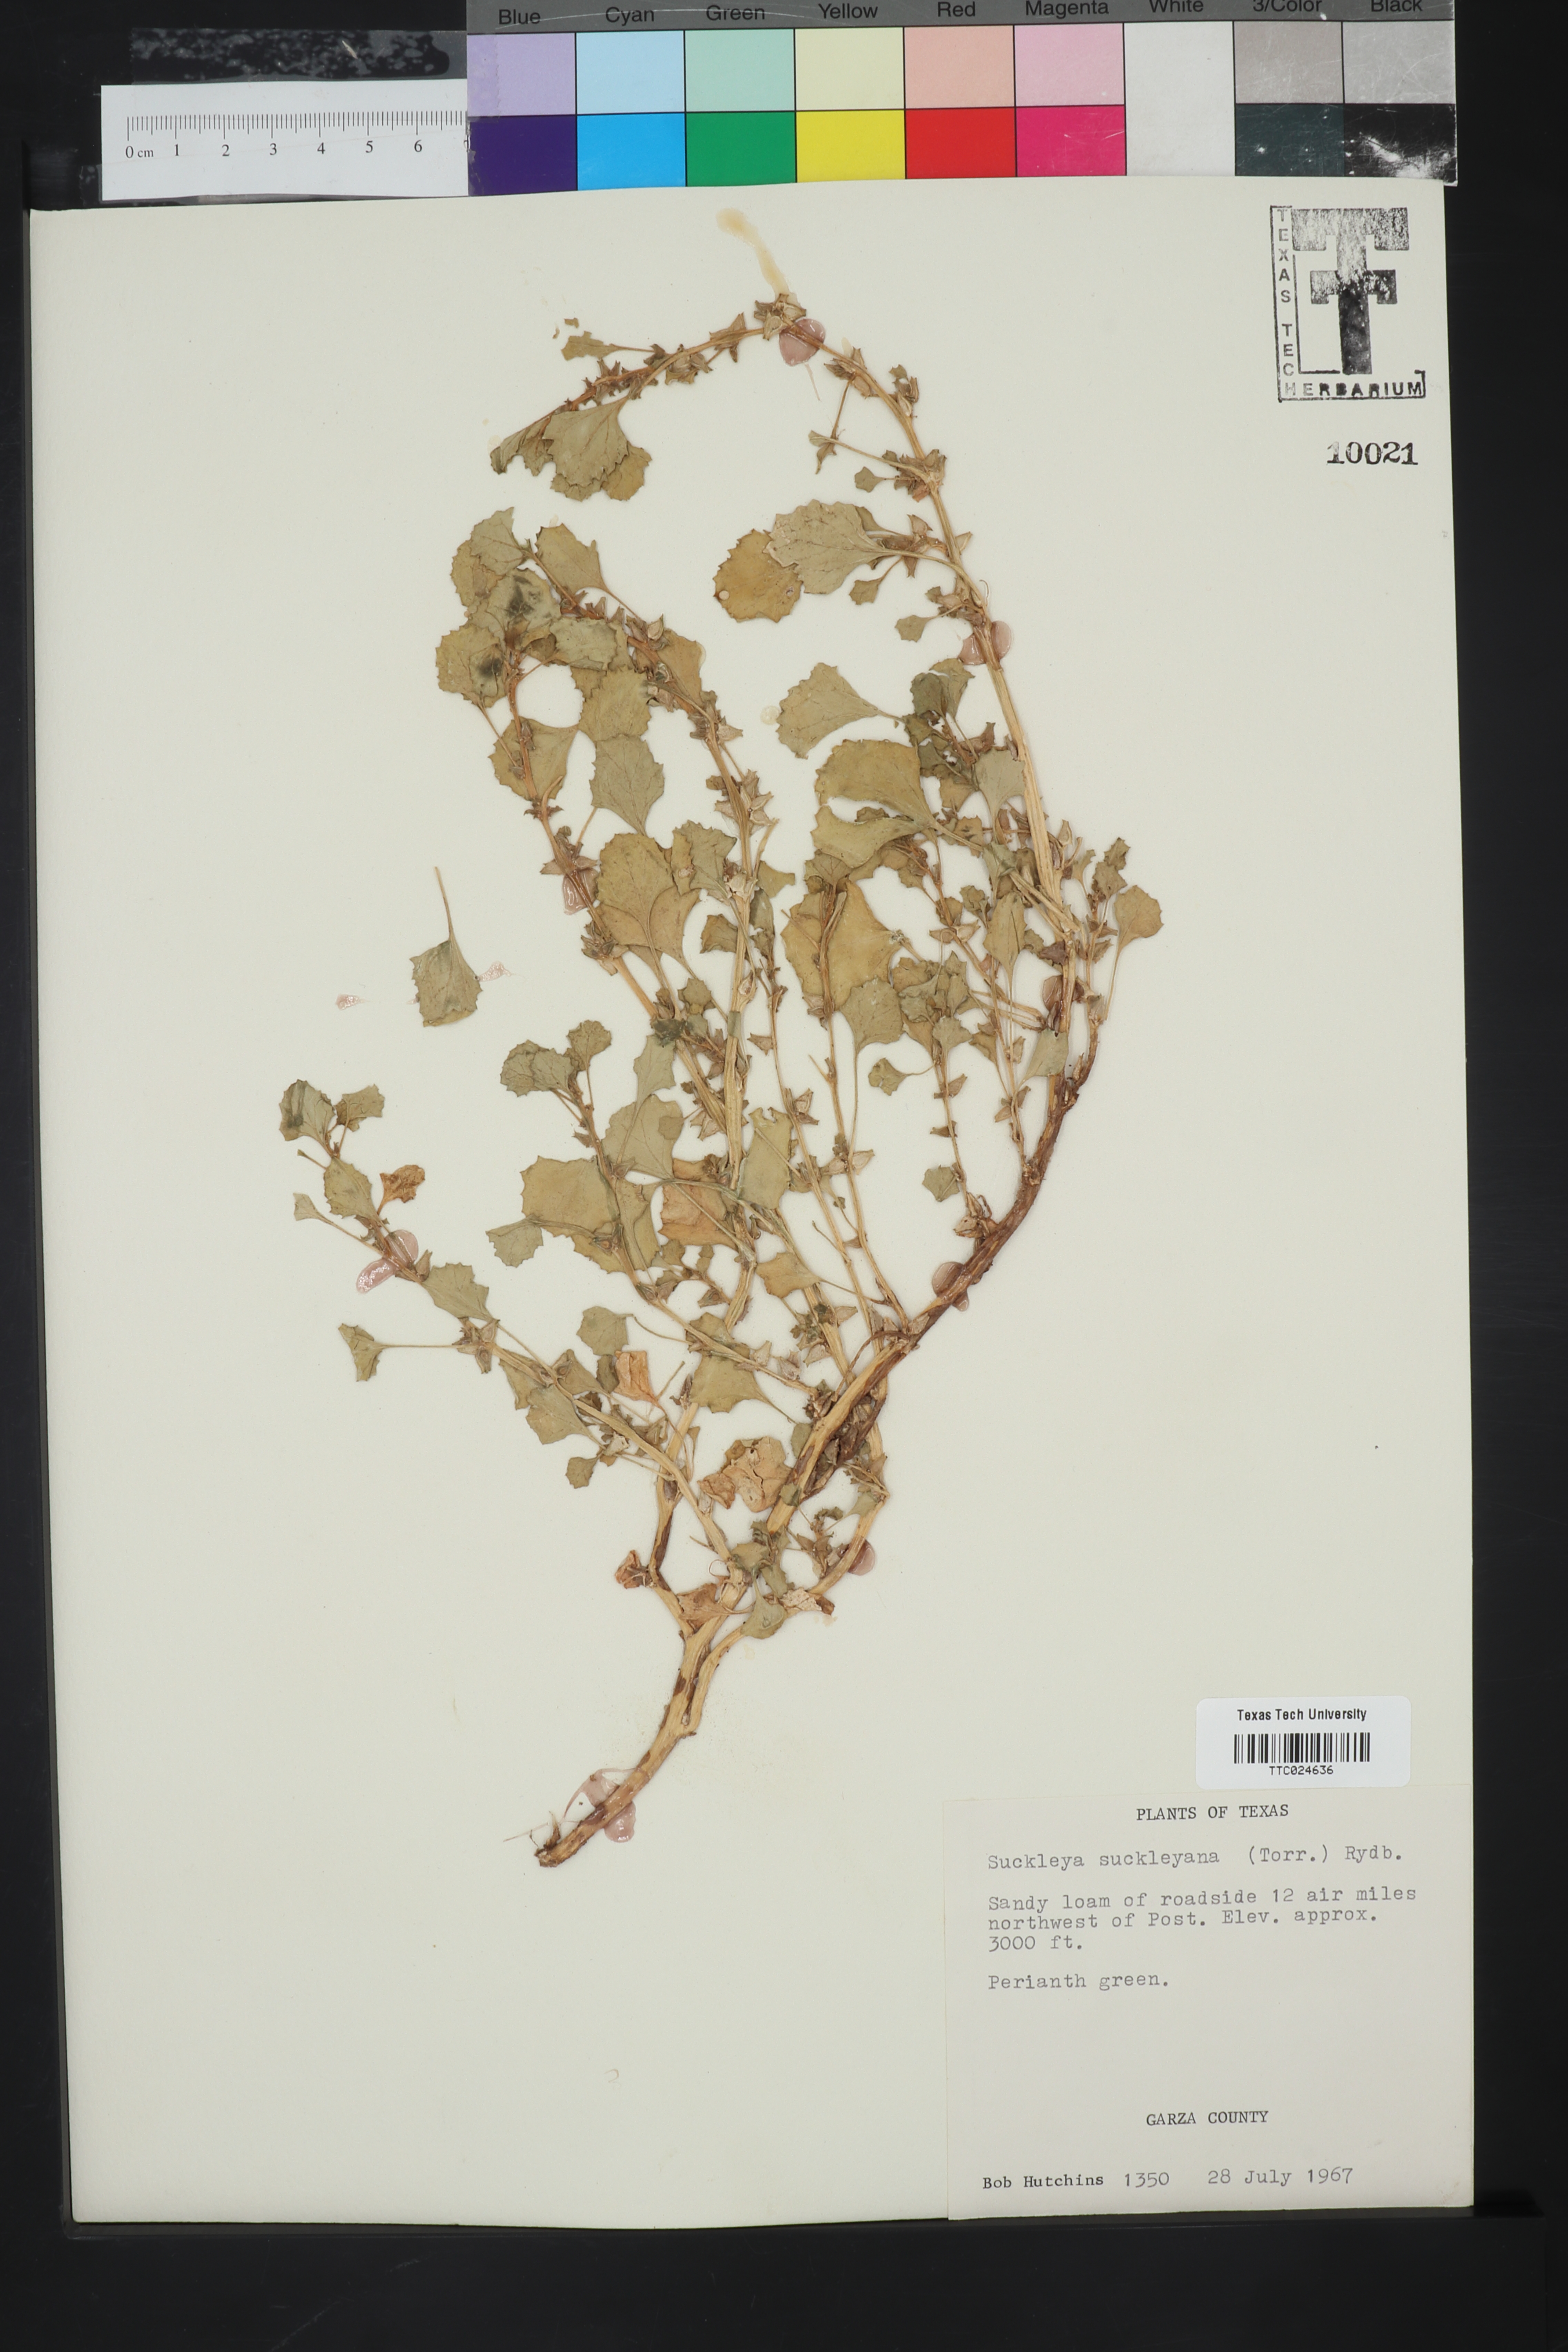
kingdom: Plantae
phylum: Tracheophyta
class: Magnoliopsida
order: Caryophyllales
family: Amaranthaceae
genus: Suckleya
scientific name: Suckleya suckleyana
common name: Poison suckleya
